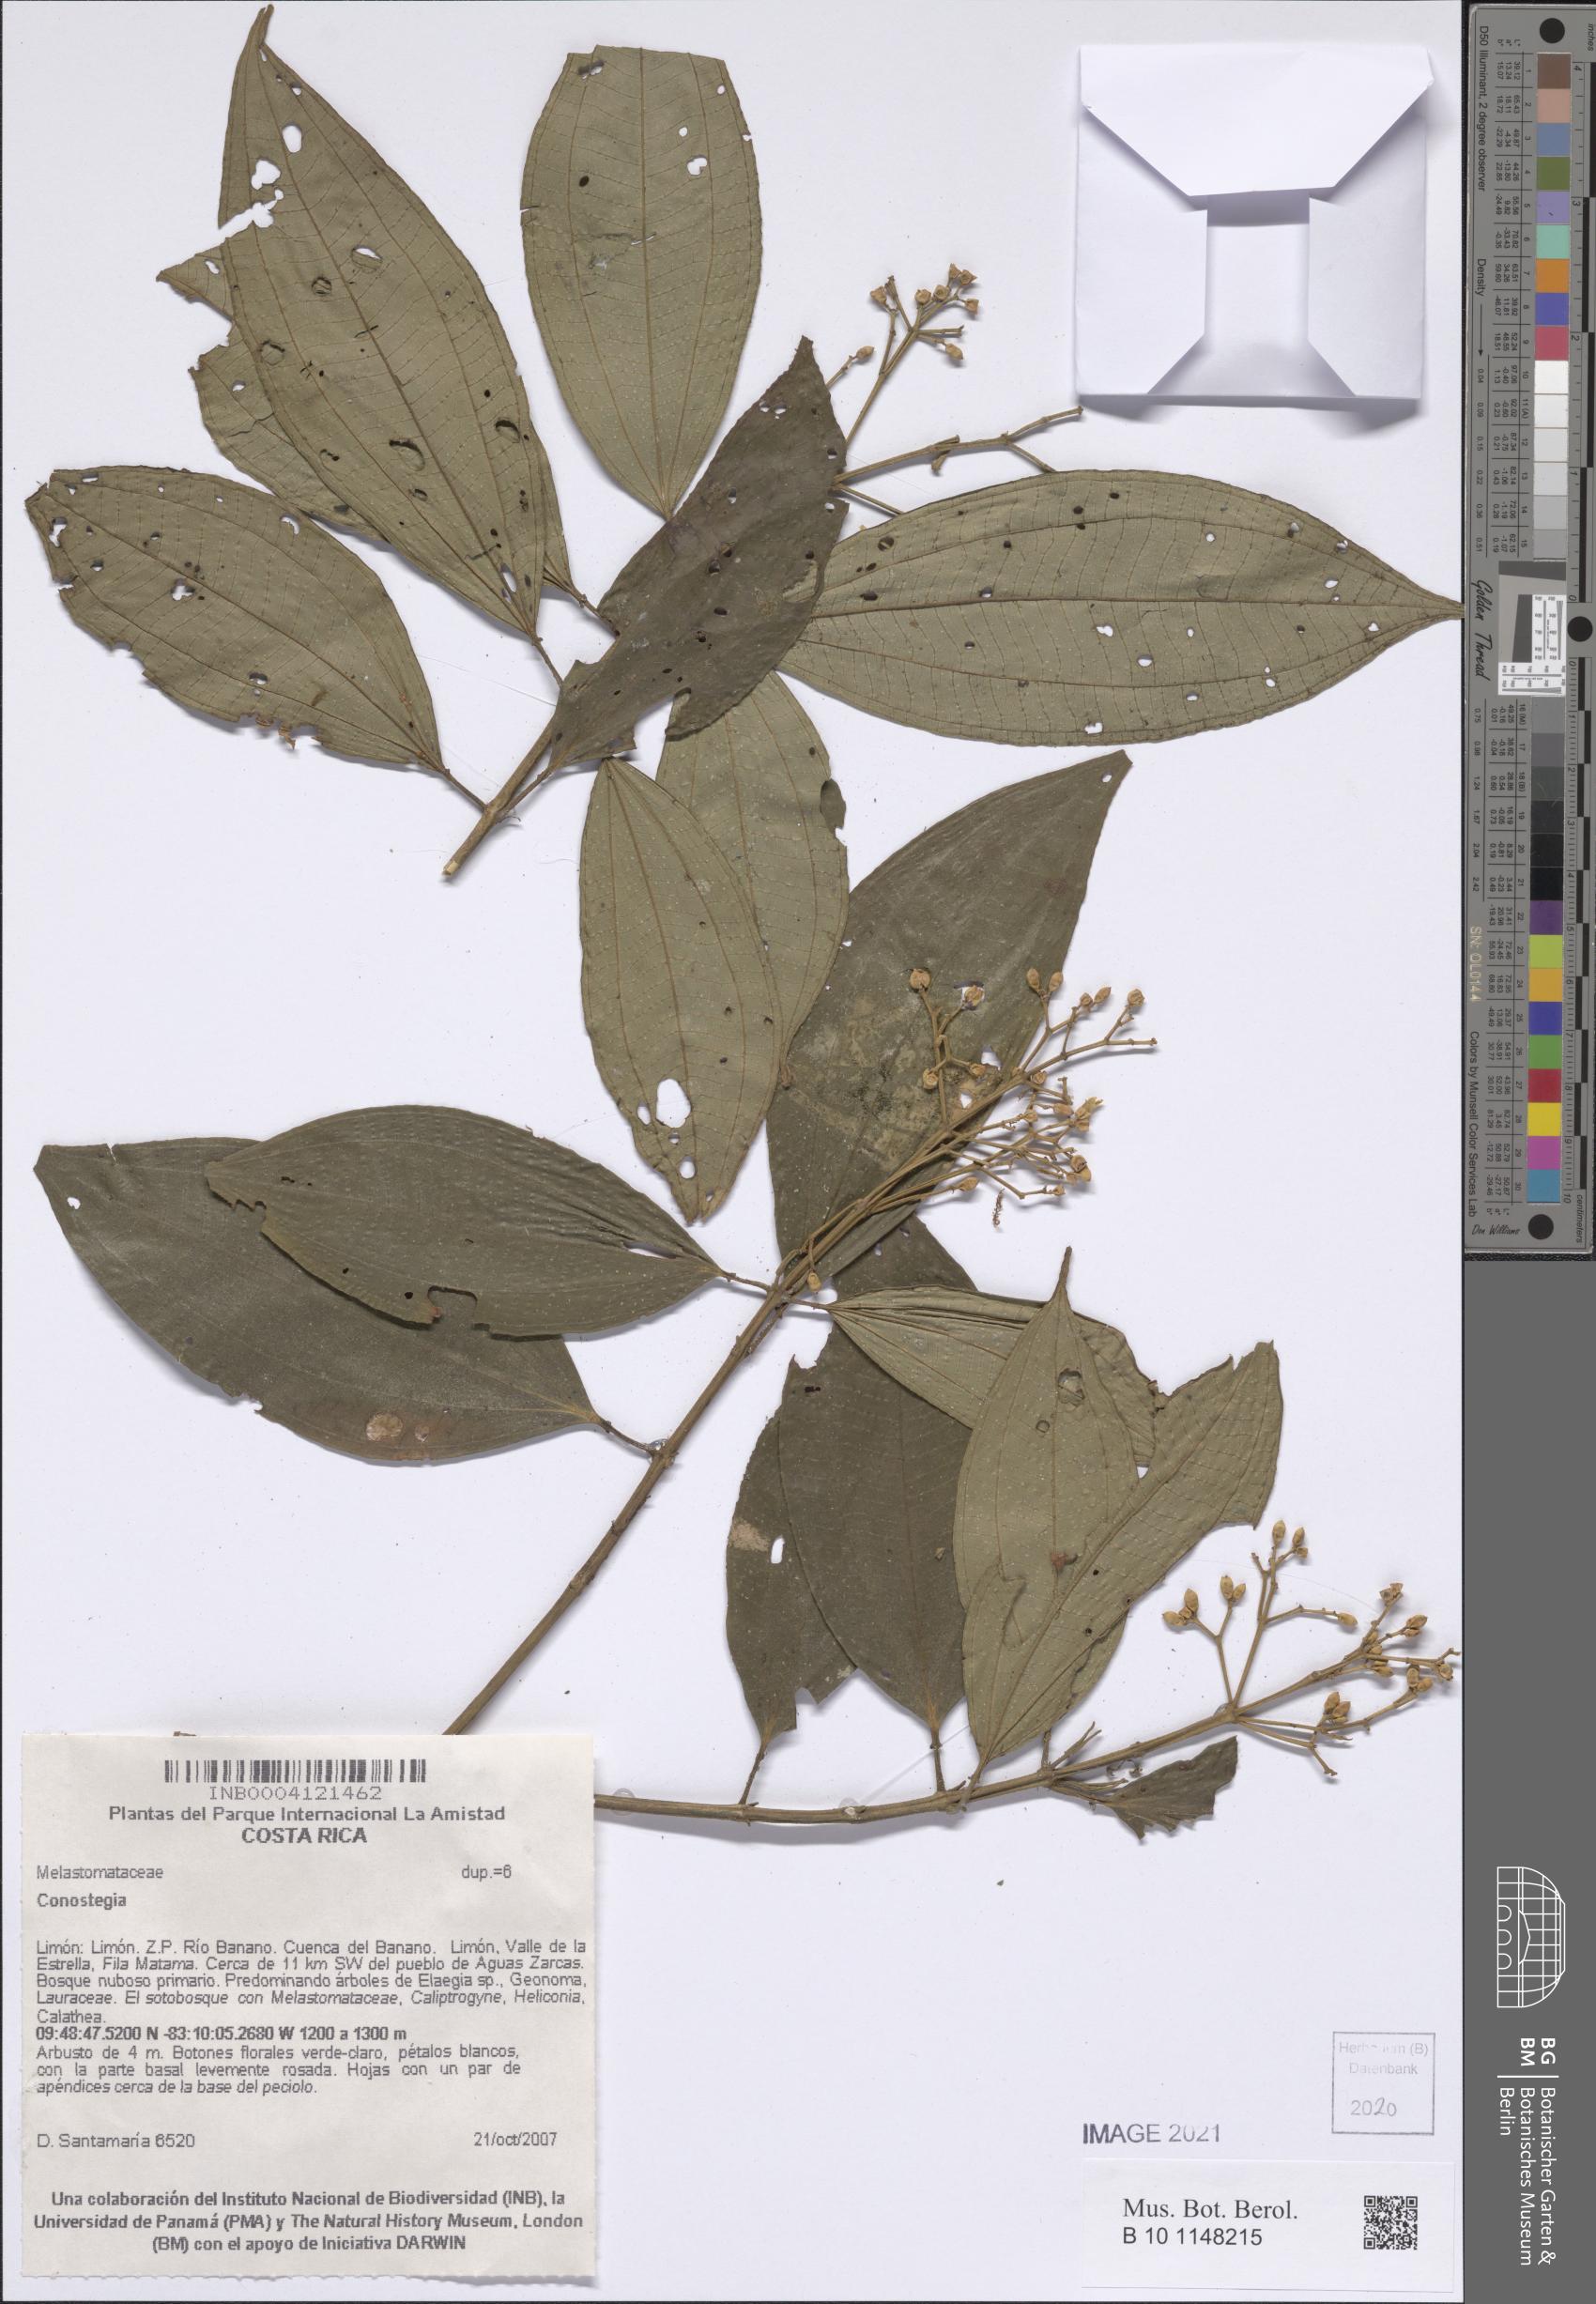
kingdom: Plantae
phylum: Tracheophyta
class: Magnoliopsida
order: Myrtales
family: Melastomataceae
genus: Miconia
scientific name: Miconia
